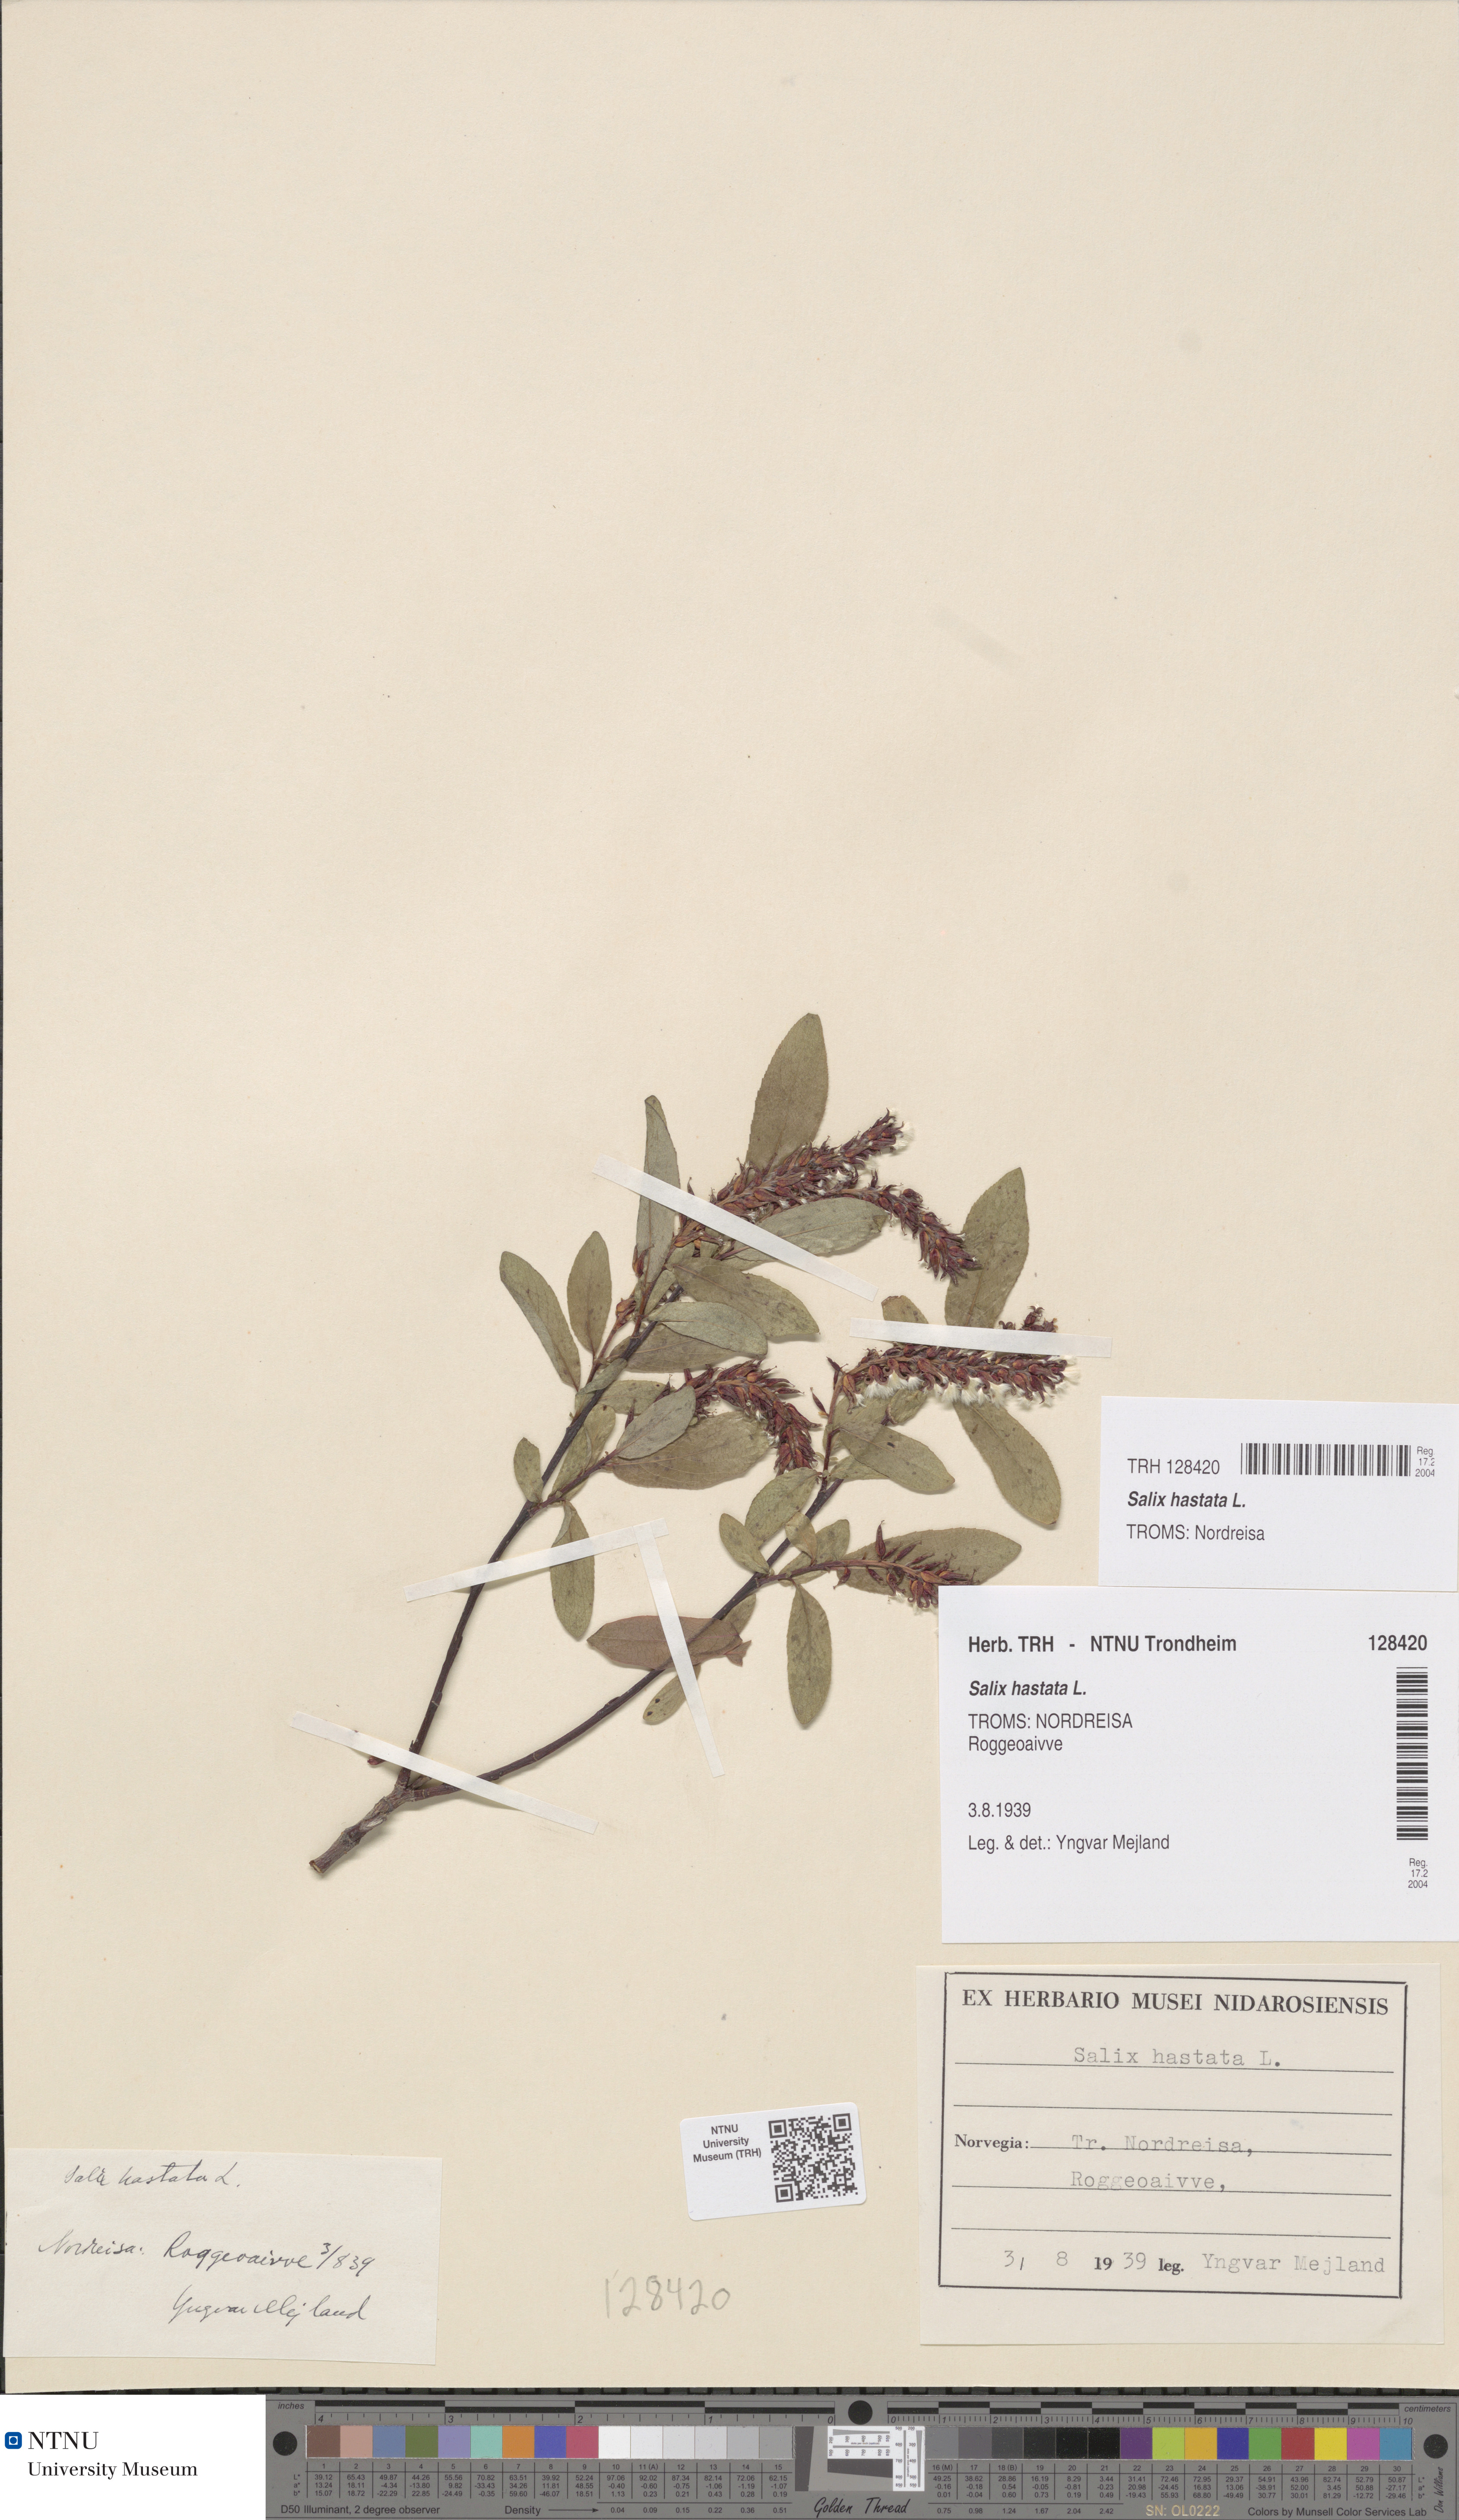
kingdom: Plantae
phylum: Tracheophyta
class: Magnoliopsida
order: Malpighiales
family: Salicaceae
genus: Salix
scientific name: Salix hastata
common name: Halberd willow
